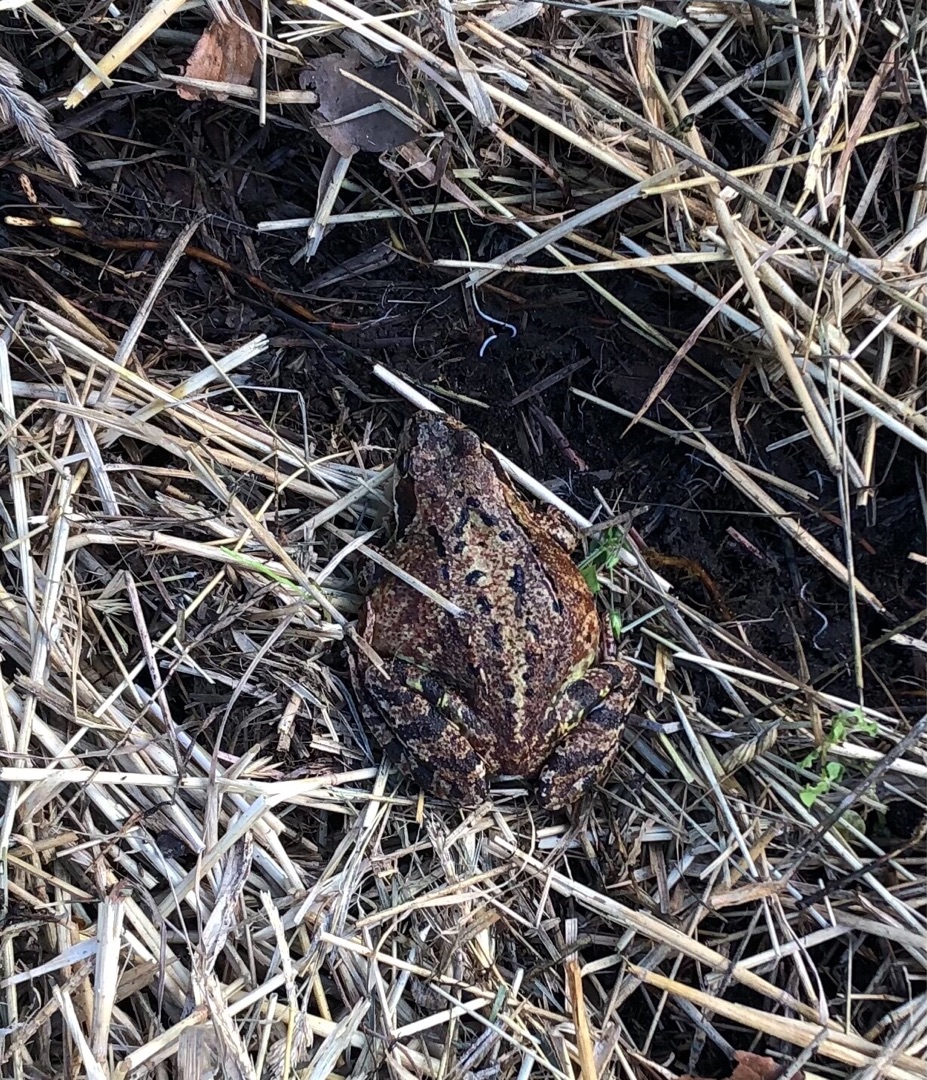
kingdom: Animalia
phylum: Chordata
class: Amphibia
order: Anura
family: Ranidae
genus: Rana
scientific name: Rana temporaria
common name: Butsnudet frø
